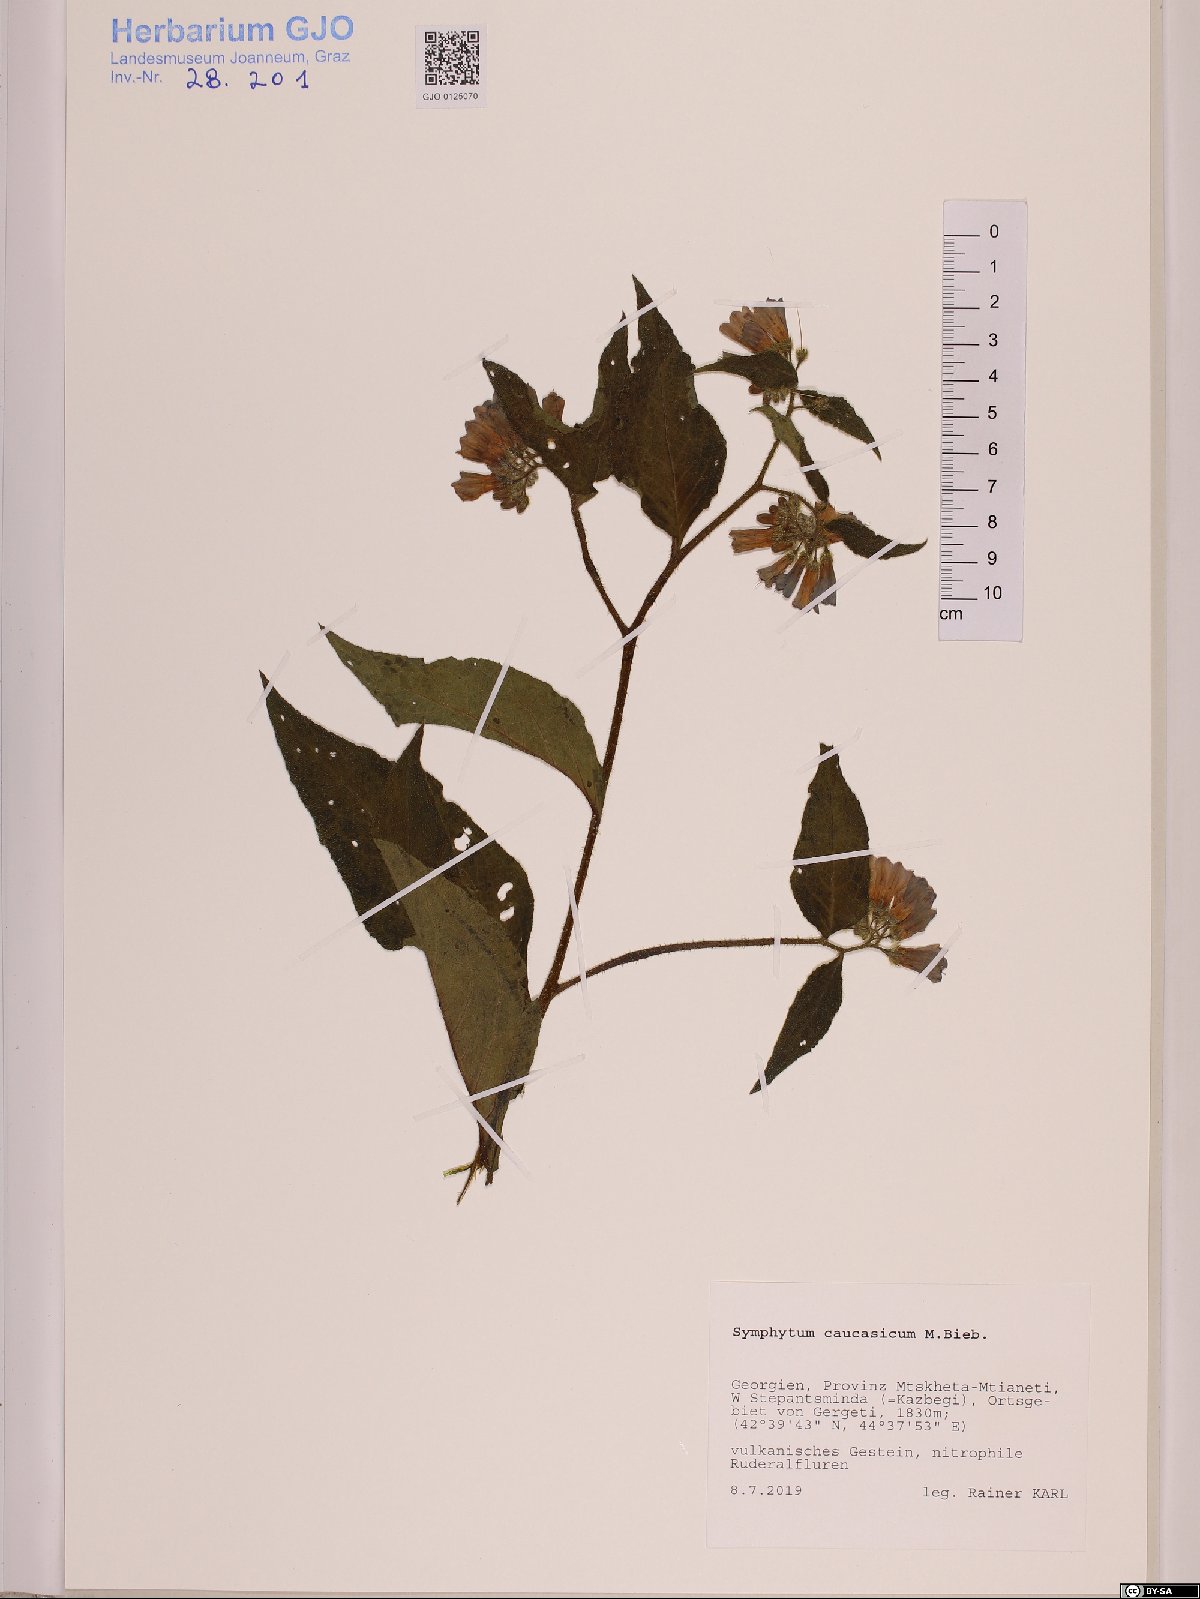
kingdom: Plantae
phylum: Tracheophyta
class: Magnoliopsida
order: Boraginales
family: Boraginaceae
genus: Symphytum
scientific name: Symphytum caucasicum
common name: Caucasian comfrey
